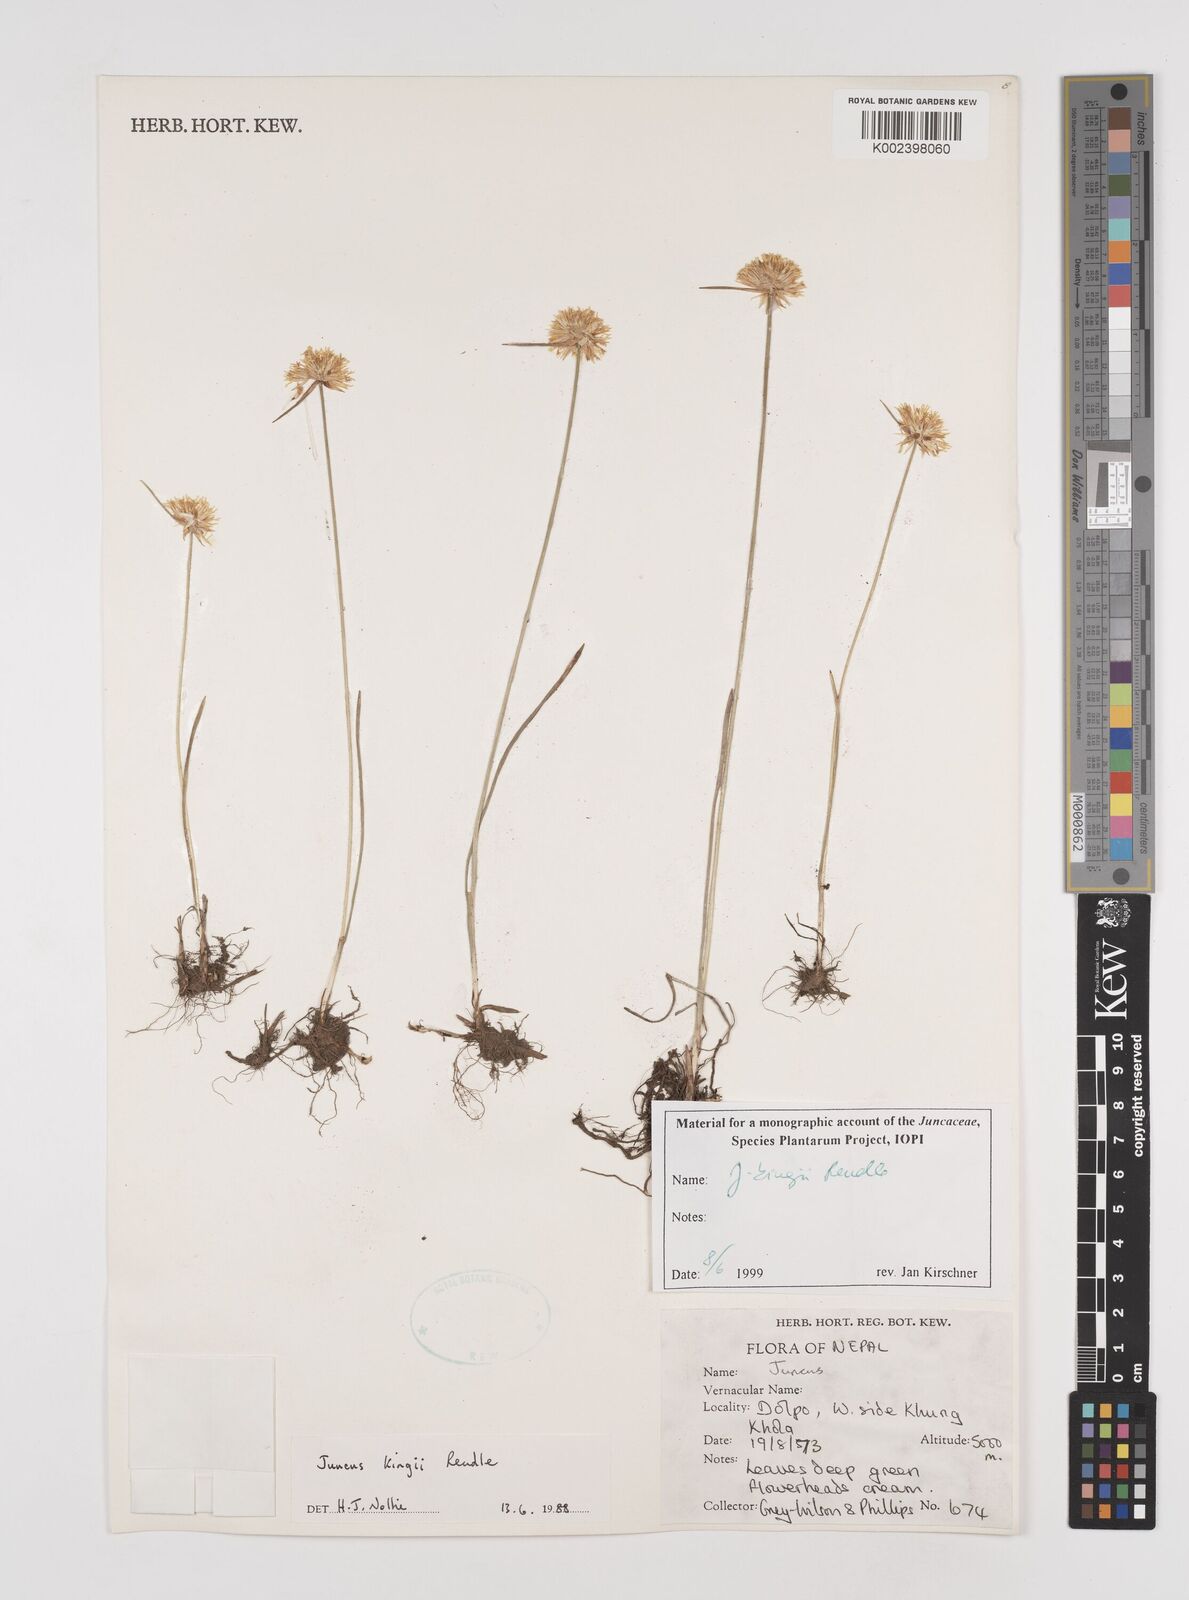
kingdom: Plantae
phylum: Tracheophyta
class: Liliopsida
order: Poales
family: Juncaceae
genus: Juncus
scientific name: Juncus kingii
